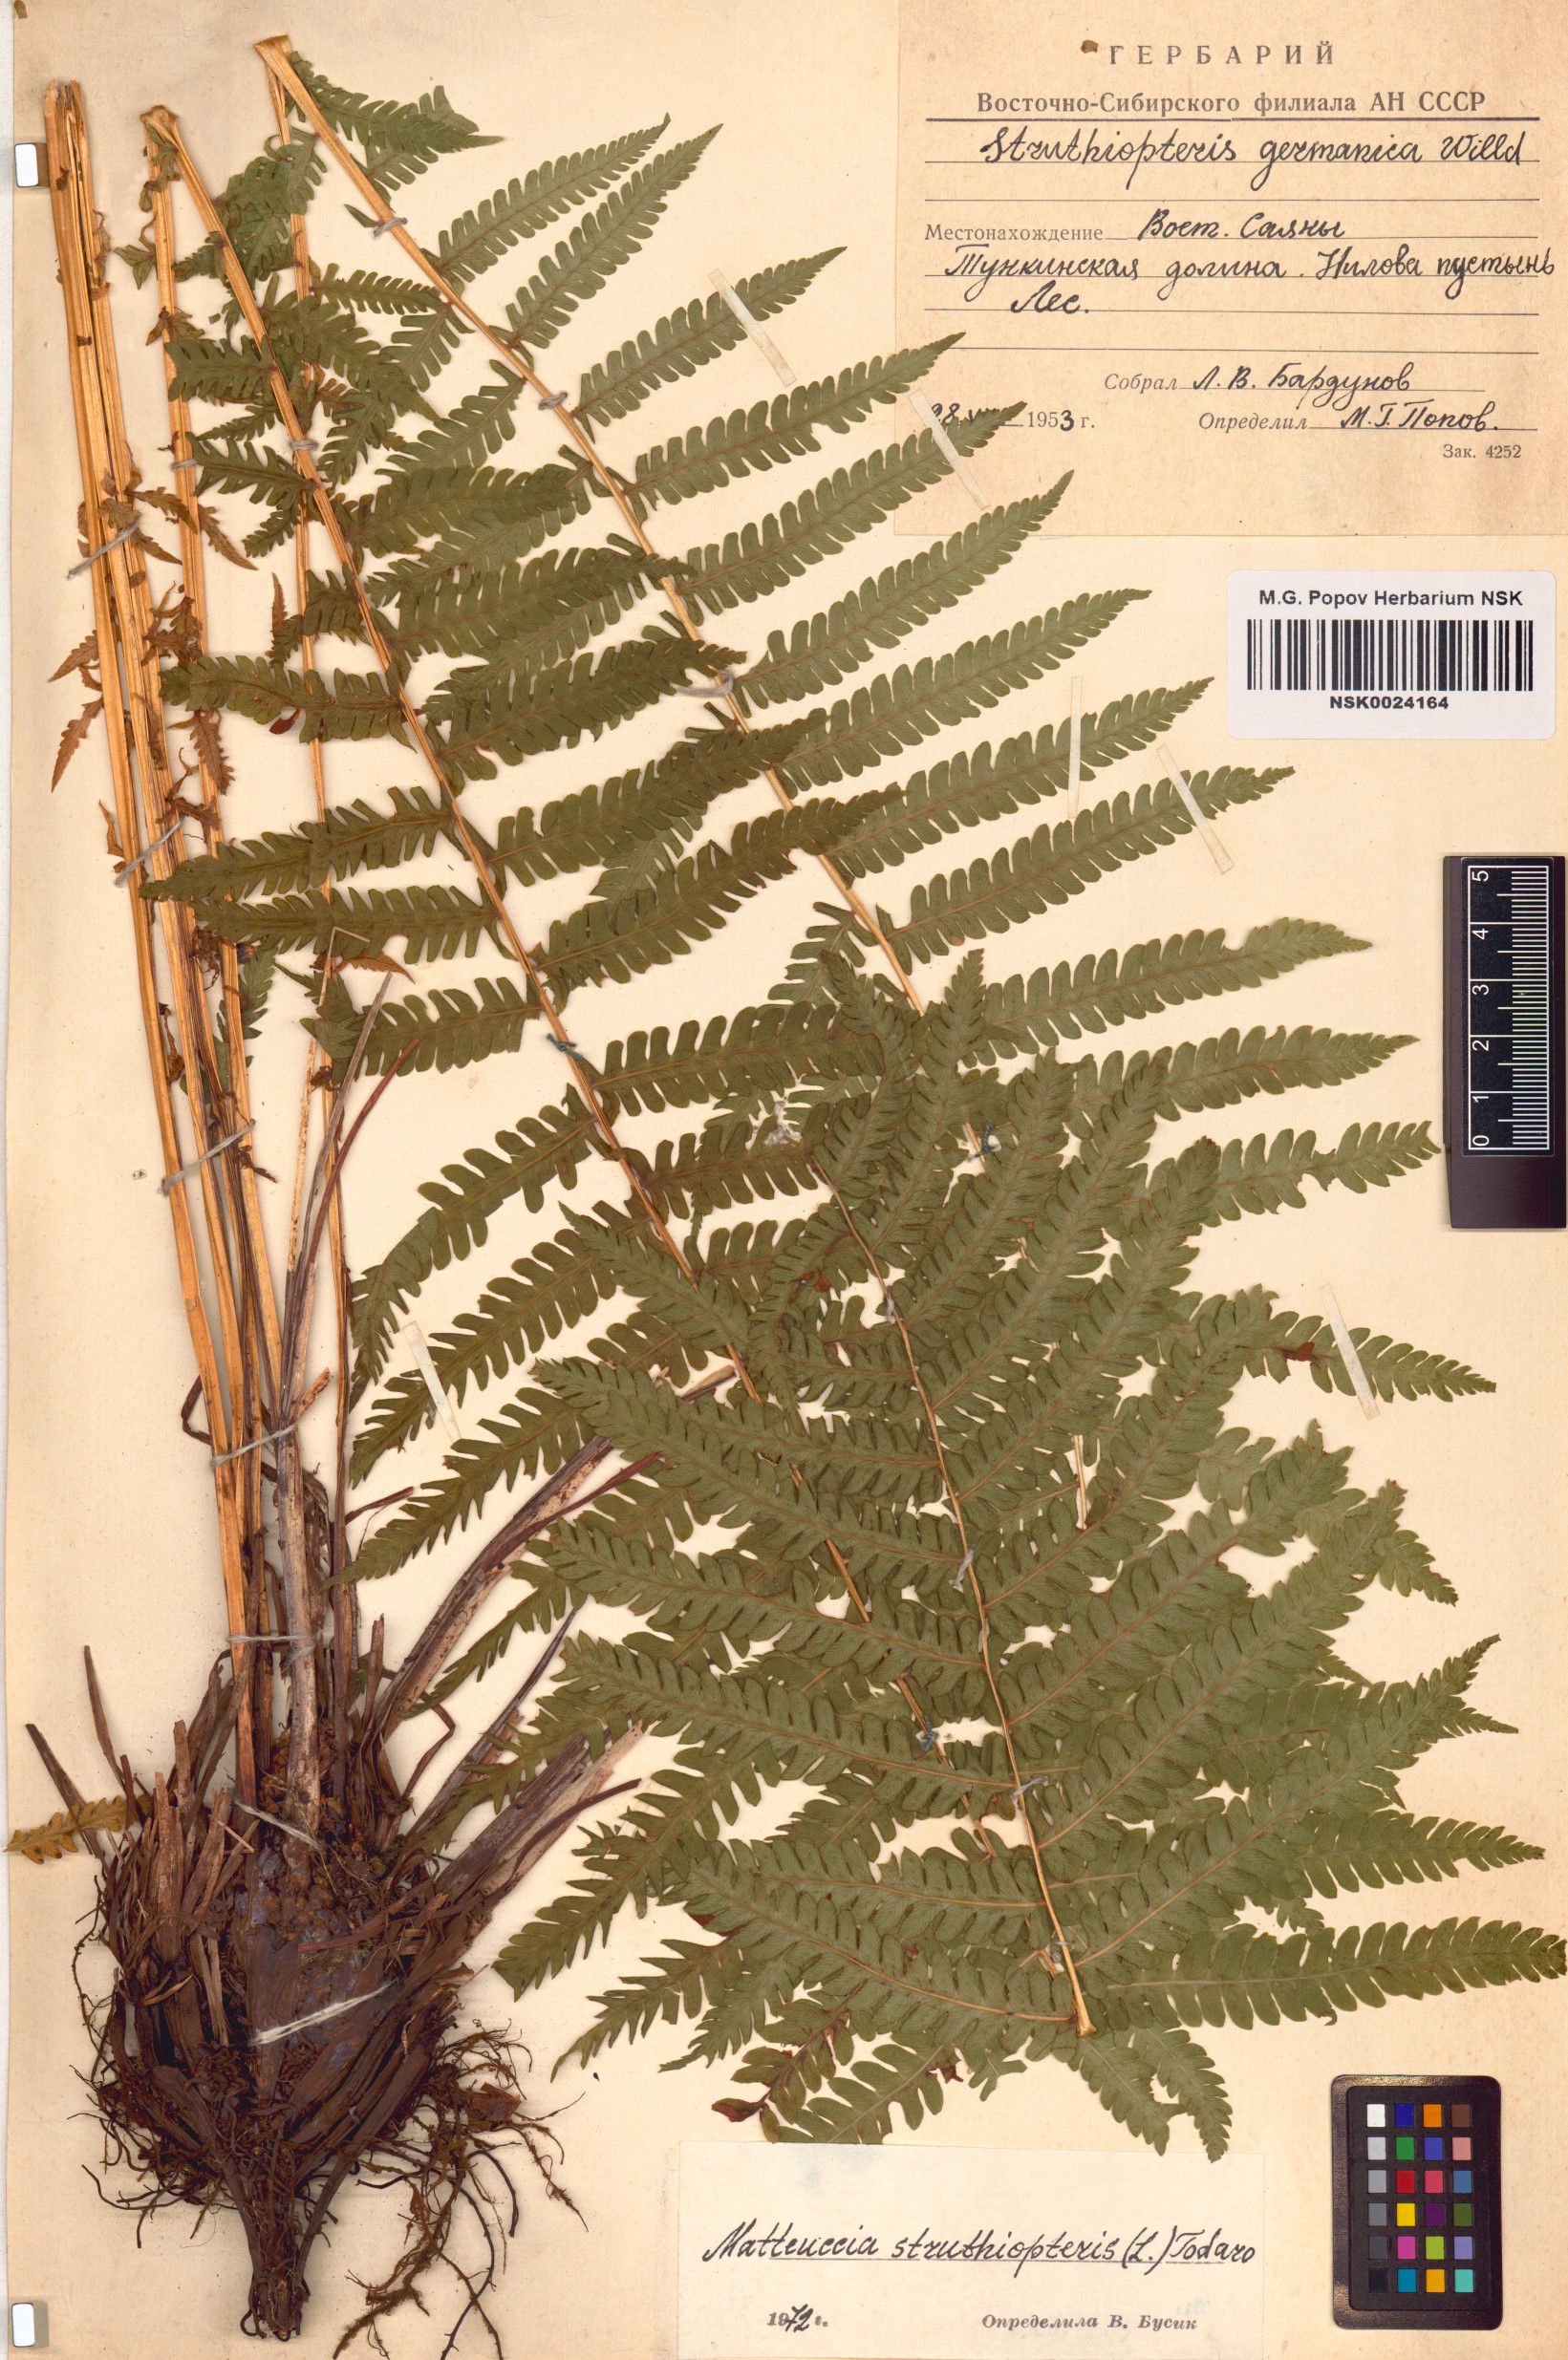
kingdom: Plantae
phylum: Tracheophyta
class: Polypodiopsida
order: Polypodiales
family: Onocleaceae
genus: Matteuccia
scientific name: Matteuccia struthiopteris
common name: Ostrich fern
